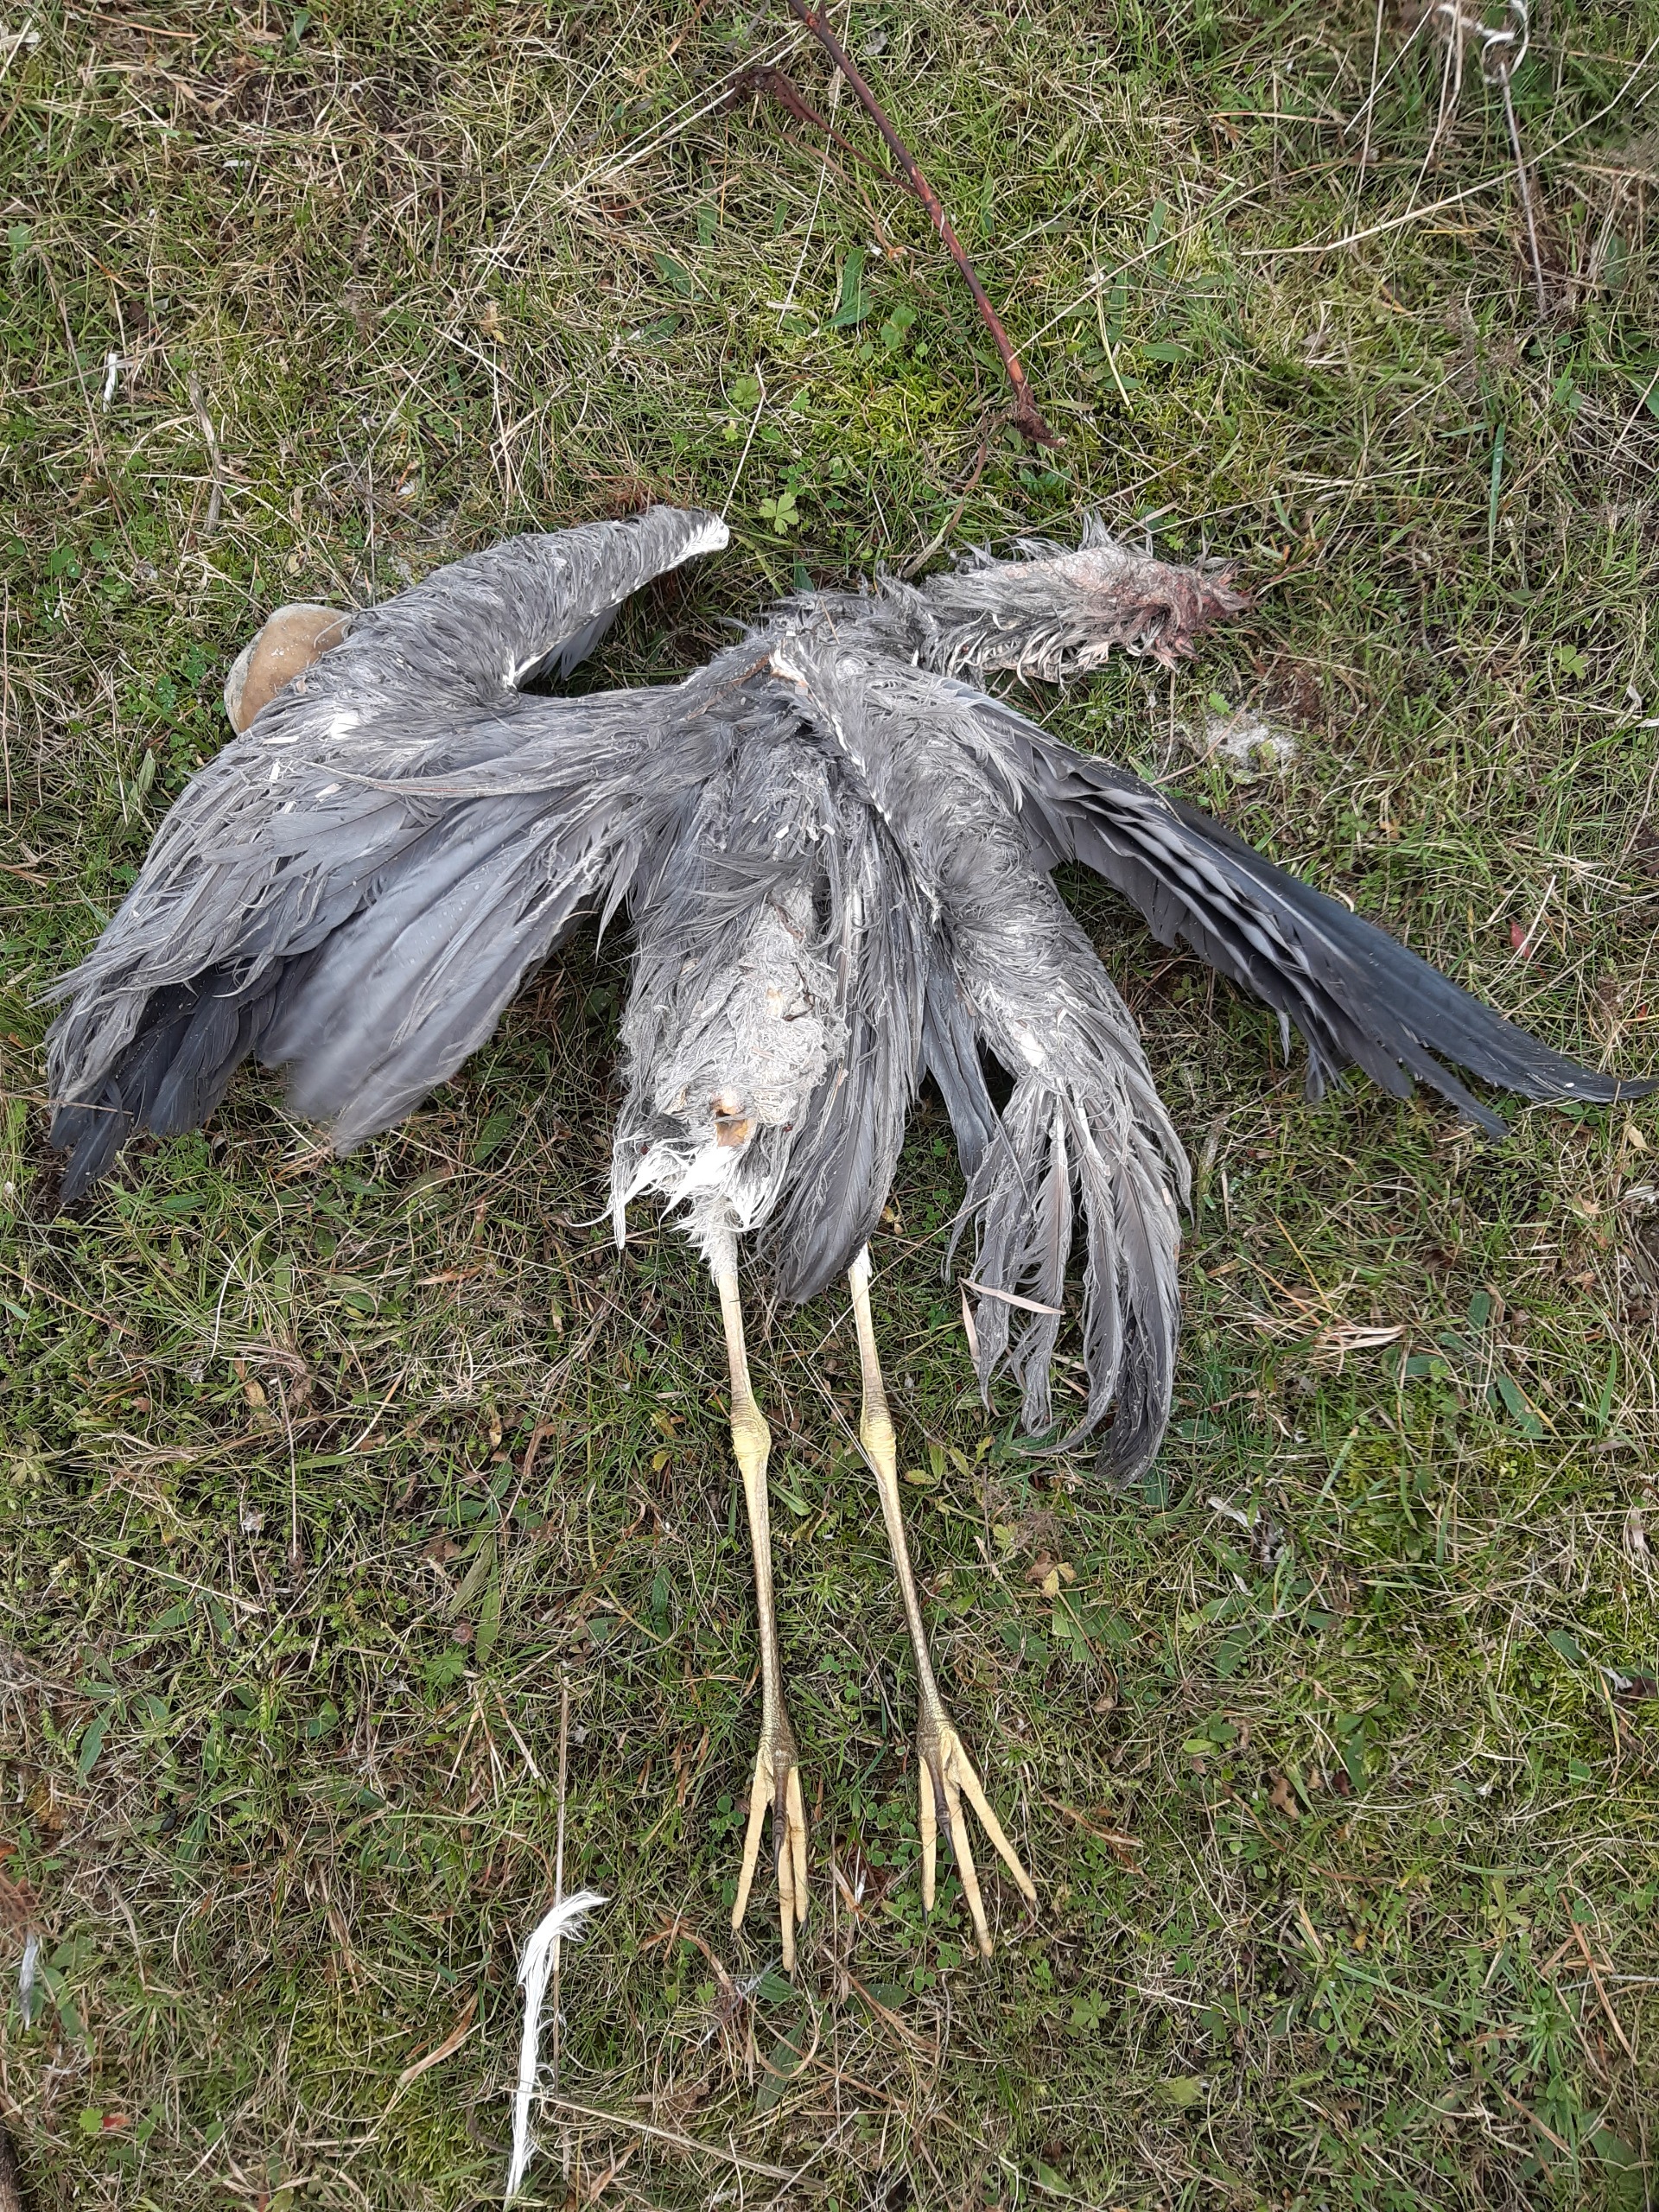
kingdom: Animalia
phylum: Chordata
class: Aves
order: Pelecaniformes
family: Ardeidae
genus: Ardea
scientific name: Ardea cinerea
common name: Fiskehejre
